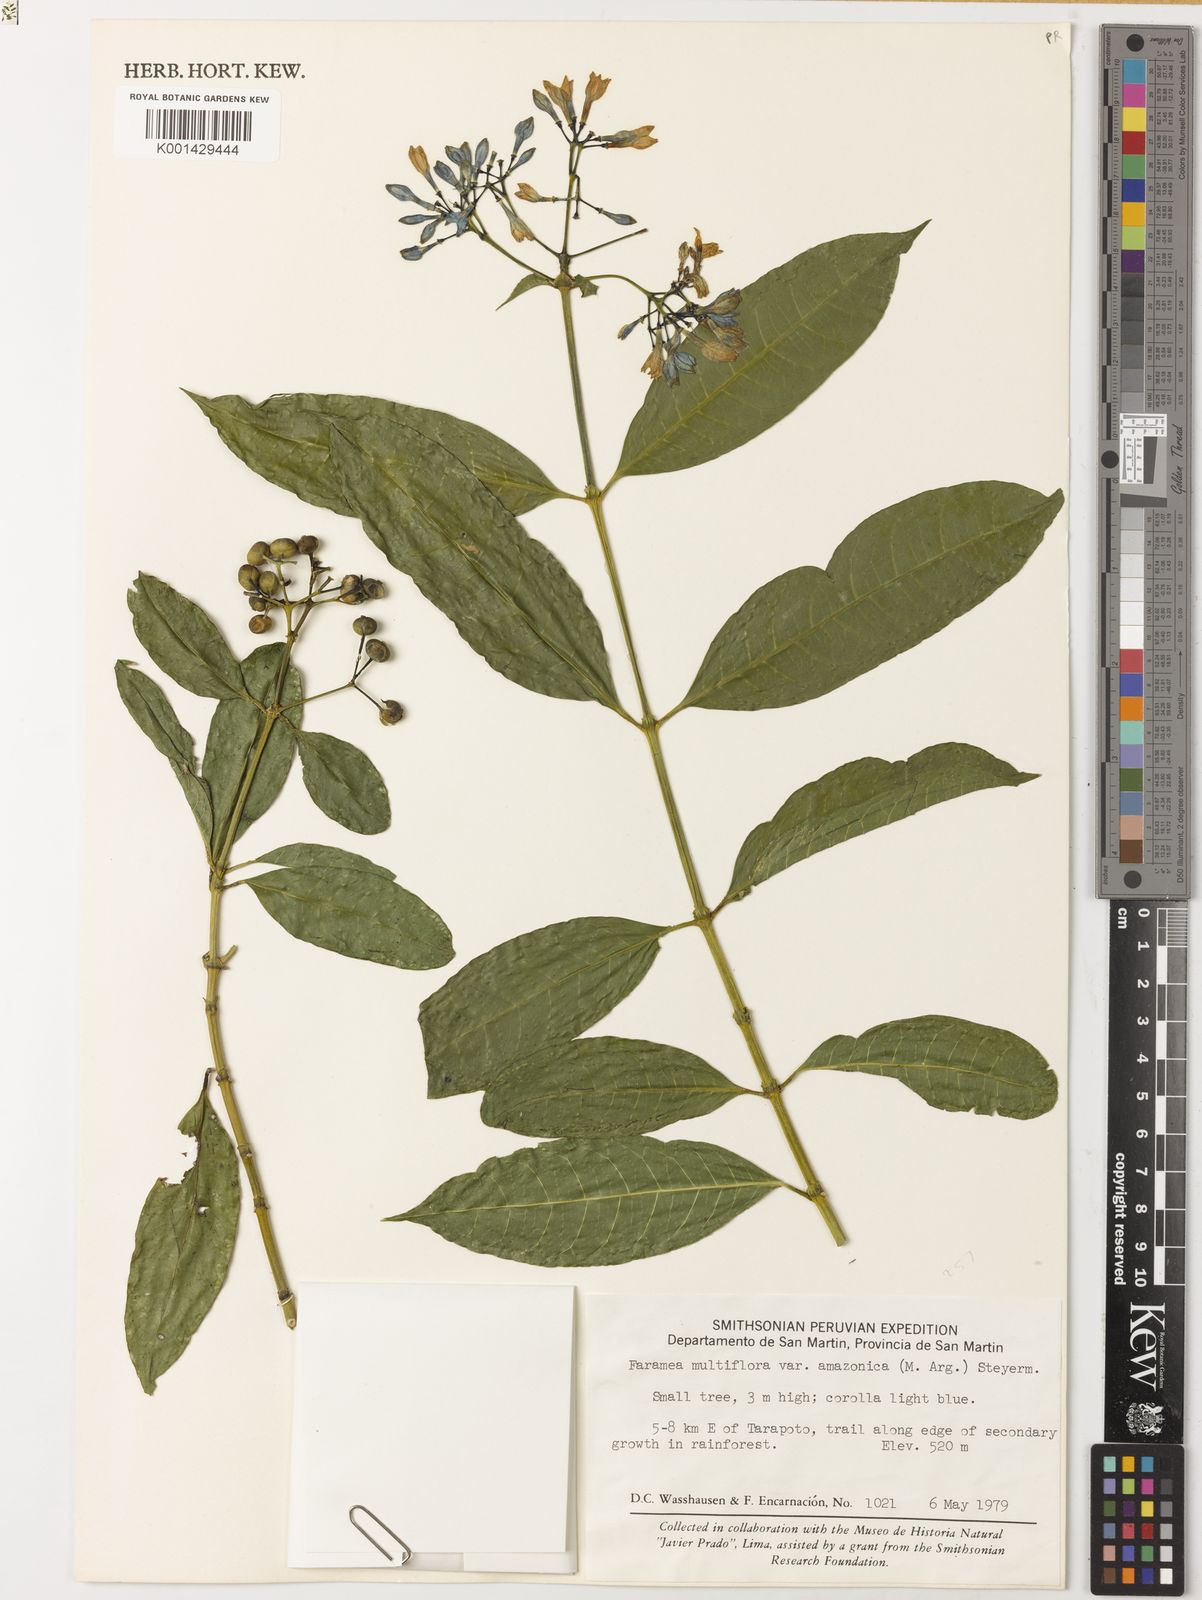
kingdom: Plantae
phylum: Tracheophyta
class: Magnoliopsida
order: Gentianales
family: Rubiaceae
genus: Faramea
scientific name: Faramea multiflora
